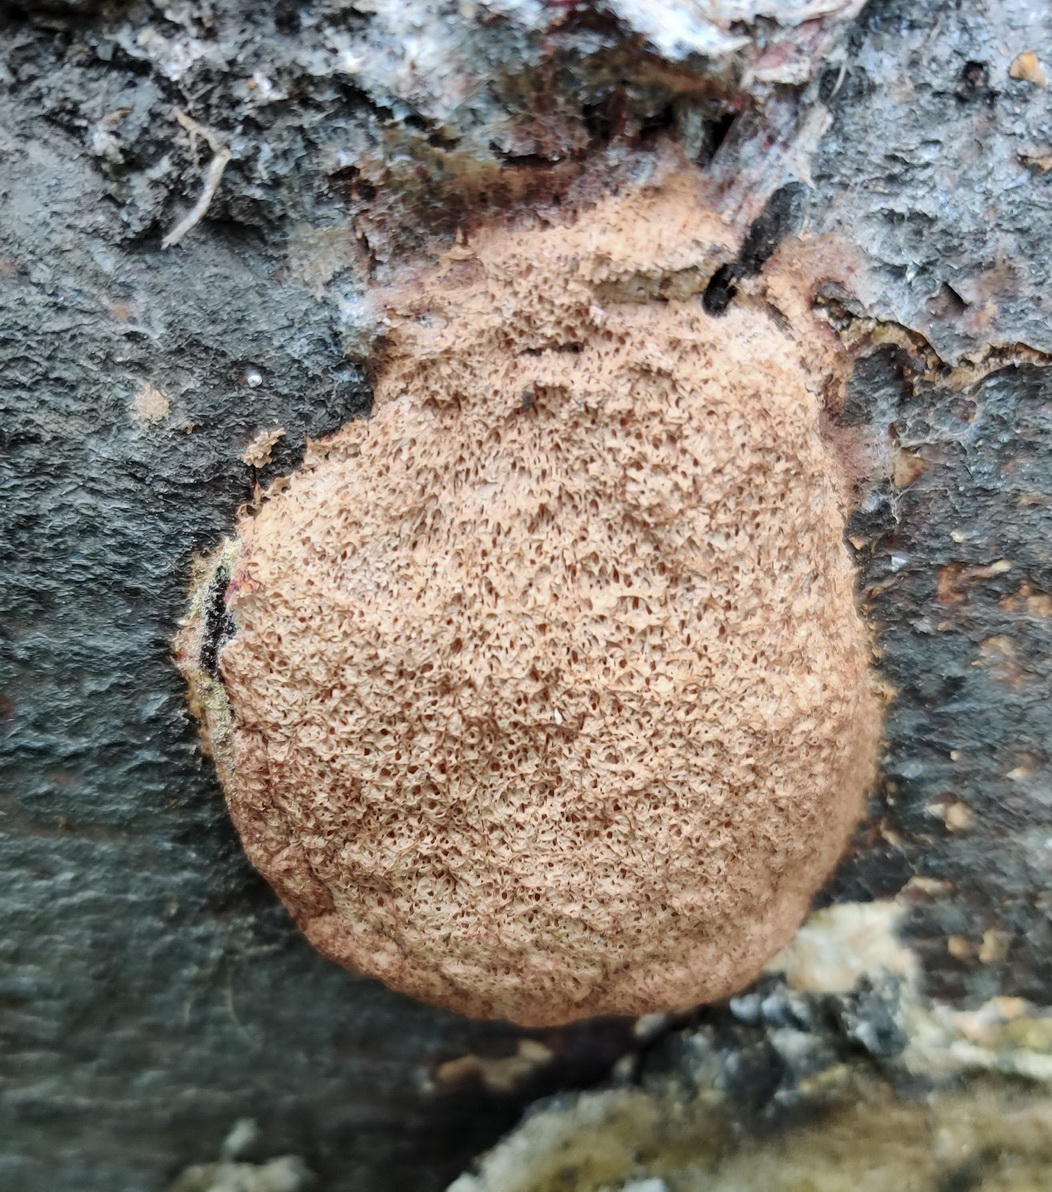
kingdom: Protozoa
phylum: Mycetozoa
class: Myxomycetes
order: Physarales
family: Physaraceae
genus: Fuligo
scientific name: Fuligo septica
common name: Dog vomit slime mold
